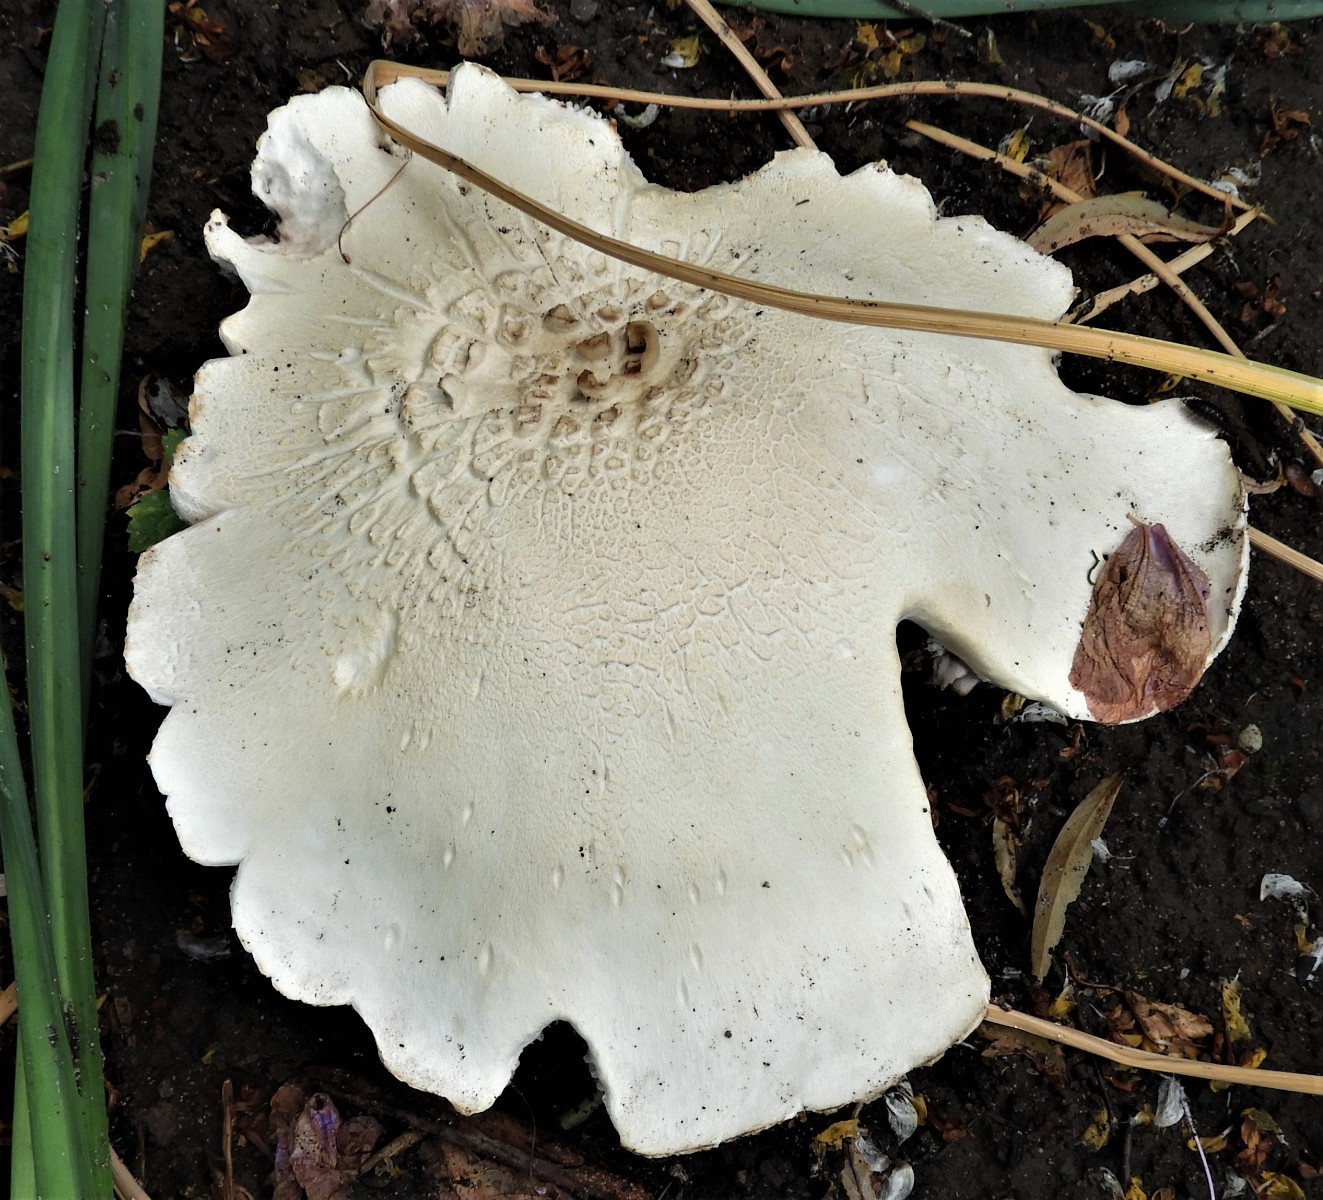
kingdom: Fungi
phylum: Basidiomycota
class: Agaricomycetes
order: Agaricales
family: Agaricaceae
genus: Agaricus
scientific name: Agaricus arvensis
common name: ager-champignon
